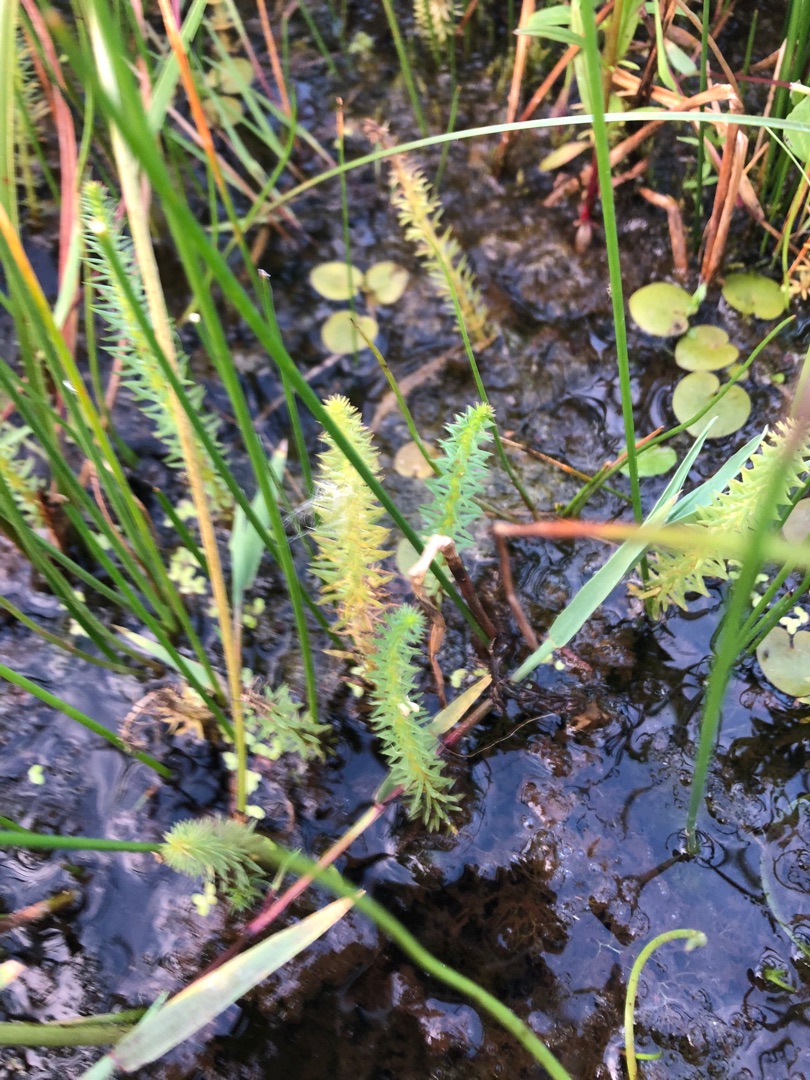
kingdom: Plantae
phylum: Tracheophyta
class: Magnoliopsida
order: Lamiales
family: Plantaginaceae
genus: Hippuris
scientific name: Hippuris vulgaris
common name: Vandspir
